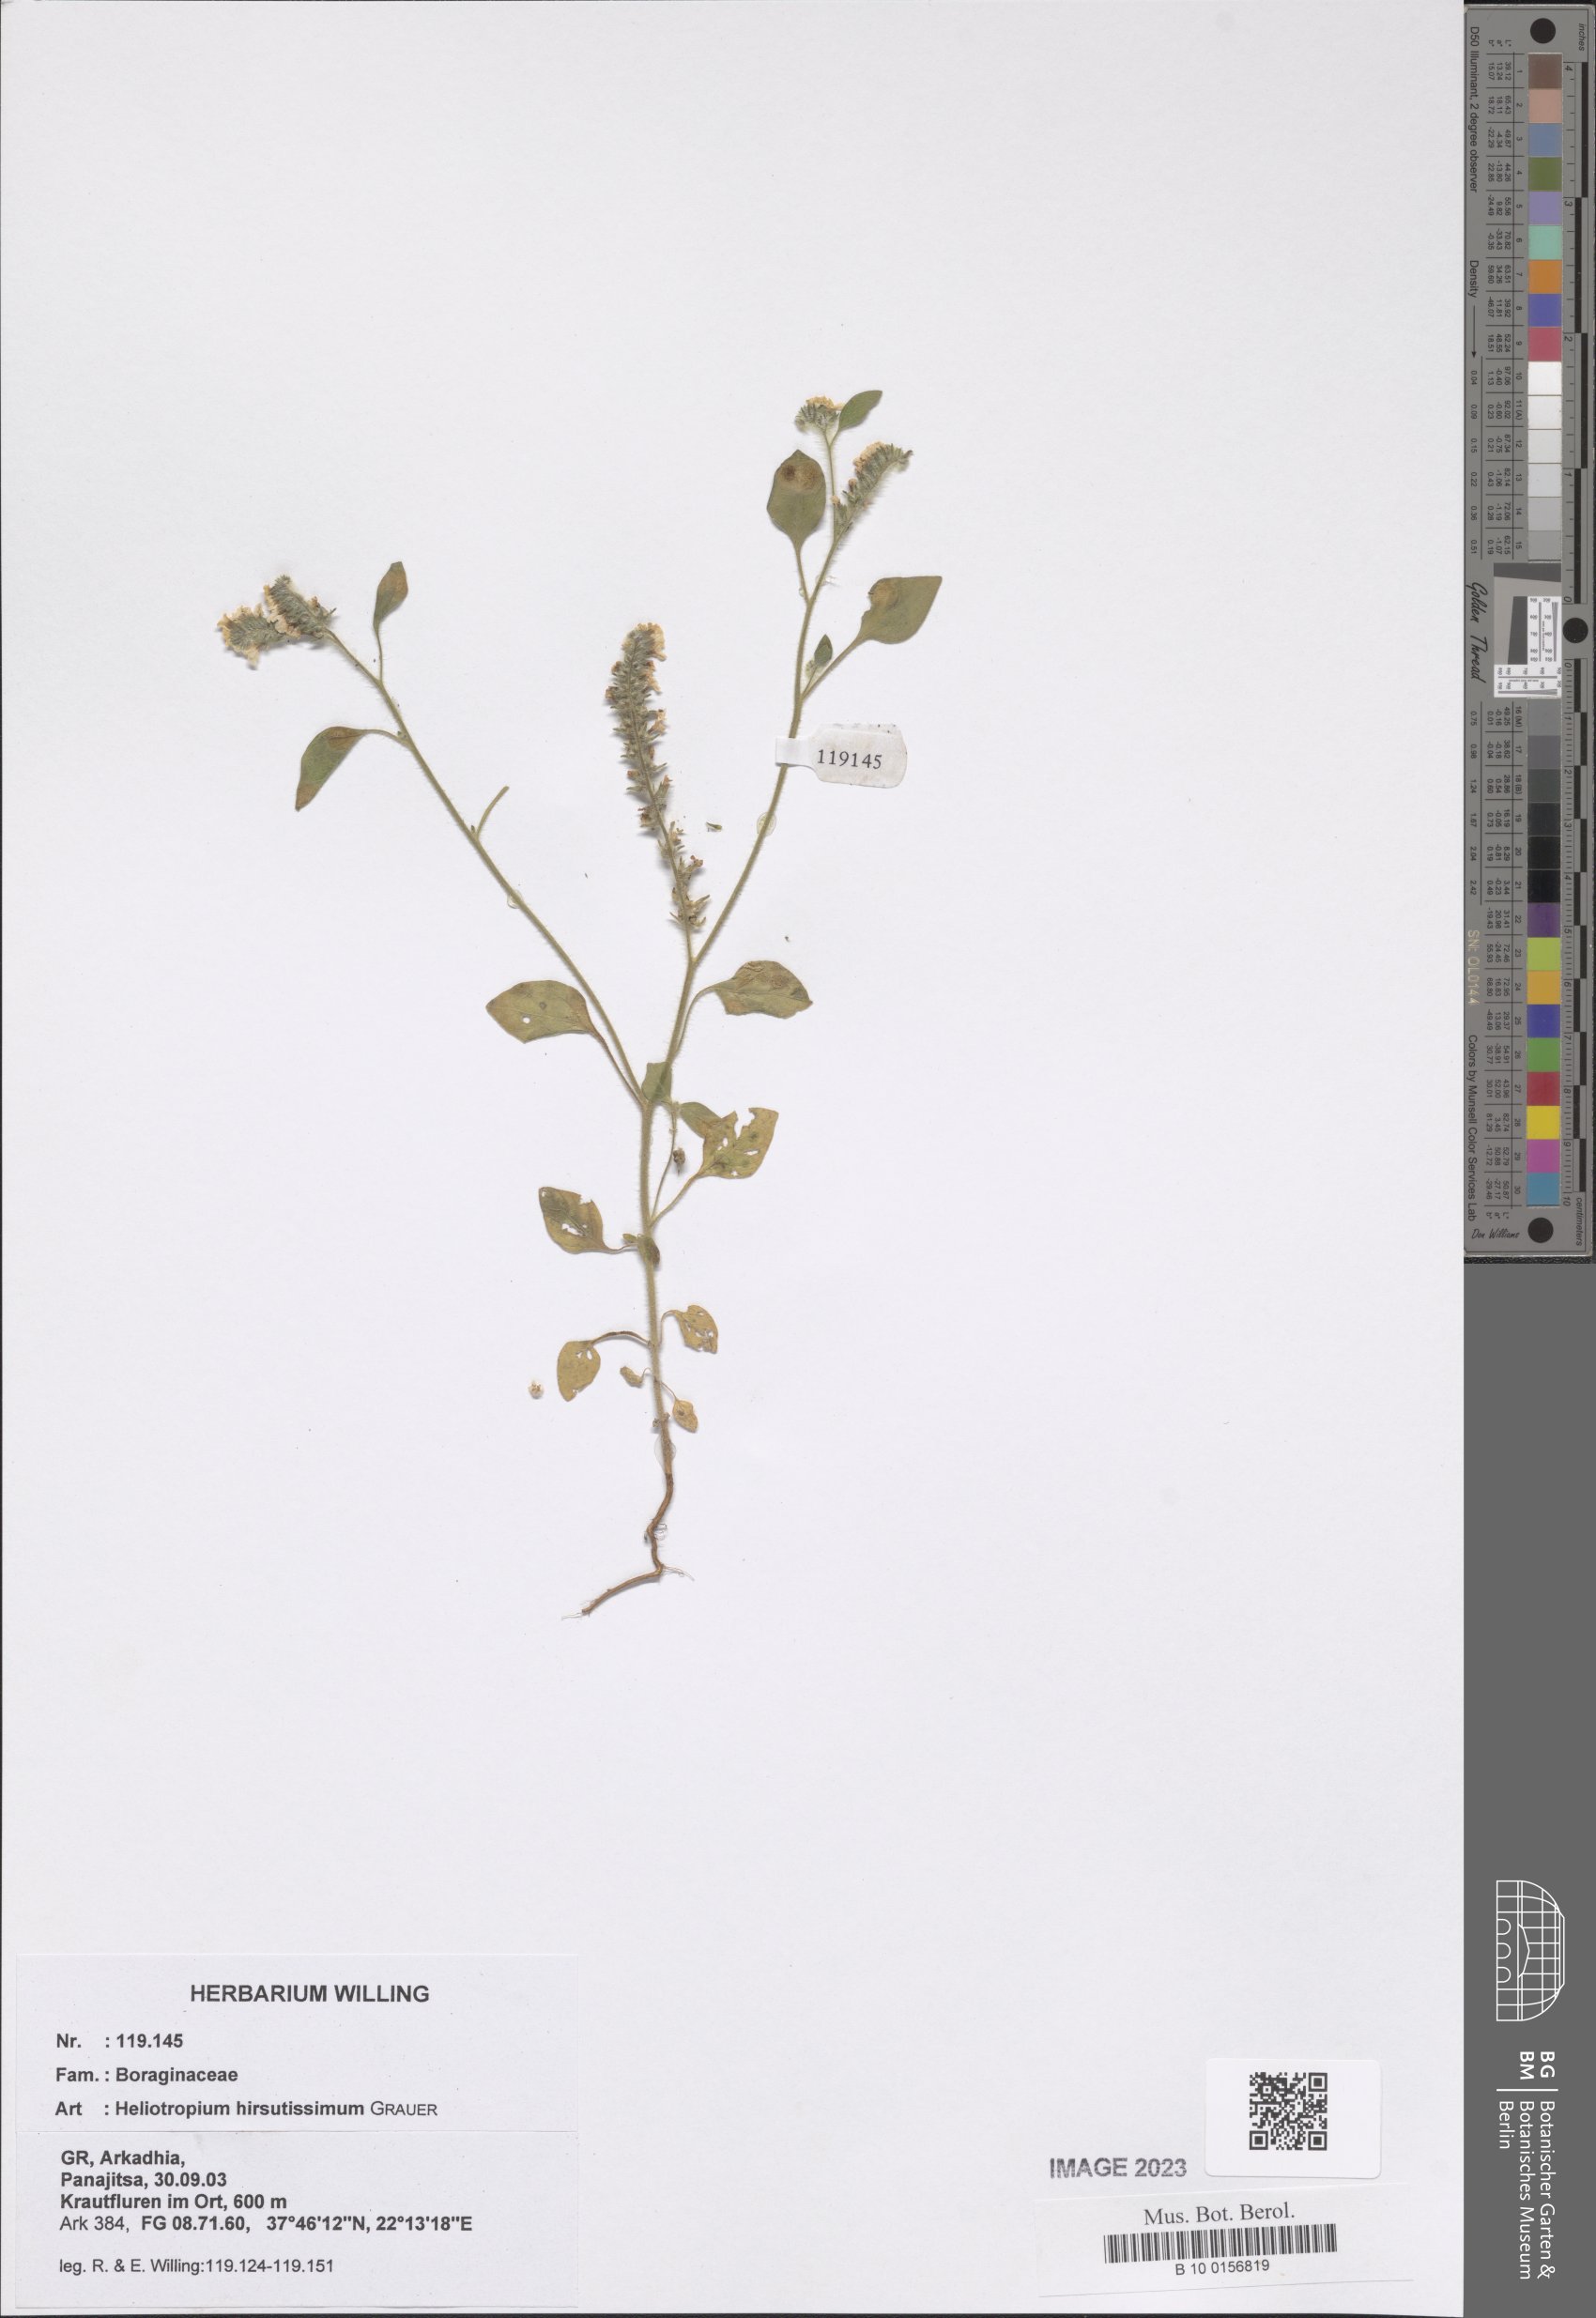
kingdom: Plantae
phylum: Tracheophyta
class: Magnoliopsida
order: Boraginales
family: Heliotropiaceae
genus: Heliotropium
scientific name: Heliotropium hirsutissimum
